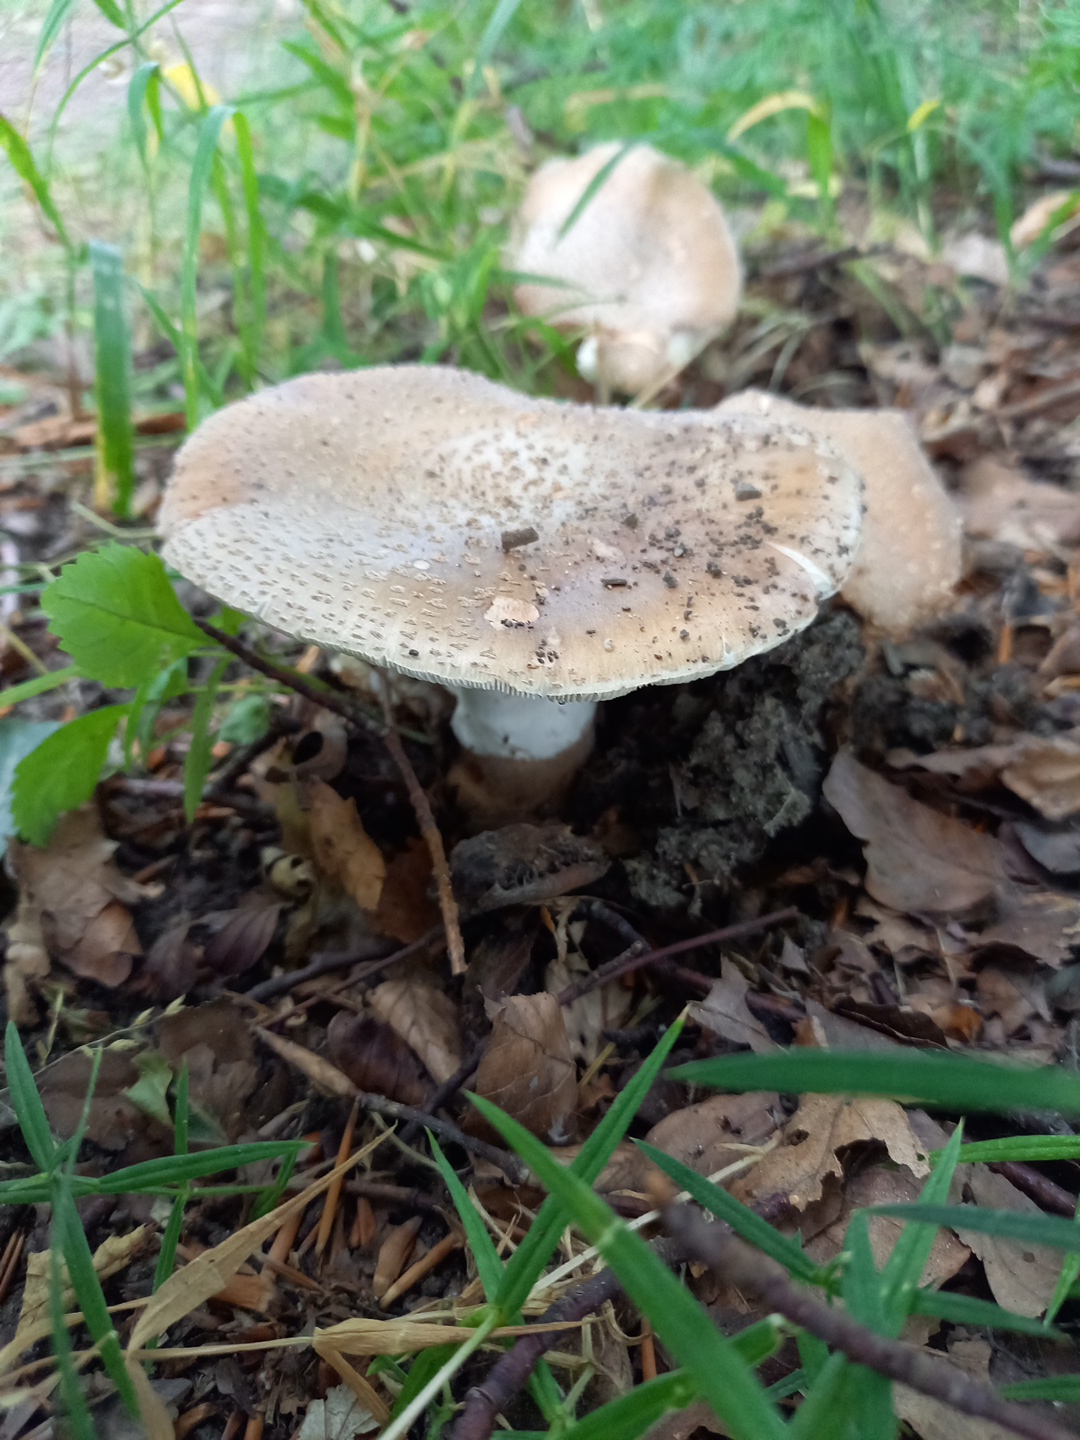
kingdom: Fungi
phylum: Basidiomycota
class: Agaricomycetes
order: Agaricales
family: Amanitaceae
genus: Amanita
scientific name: Amanita rubescens
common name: rødmende fluesvamp
